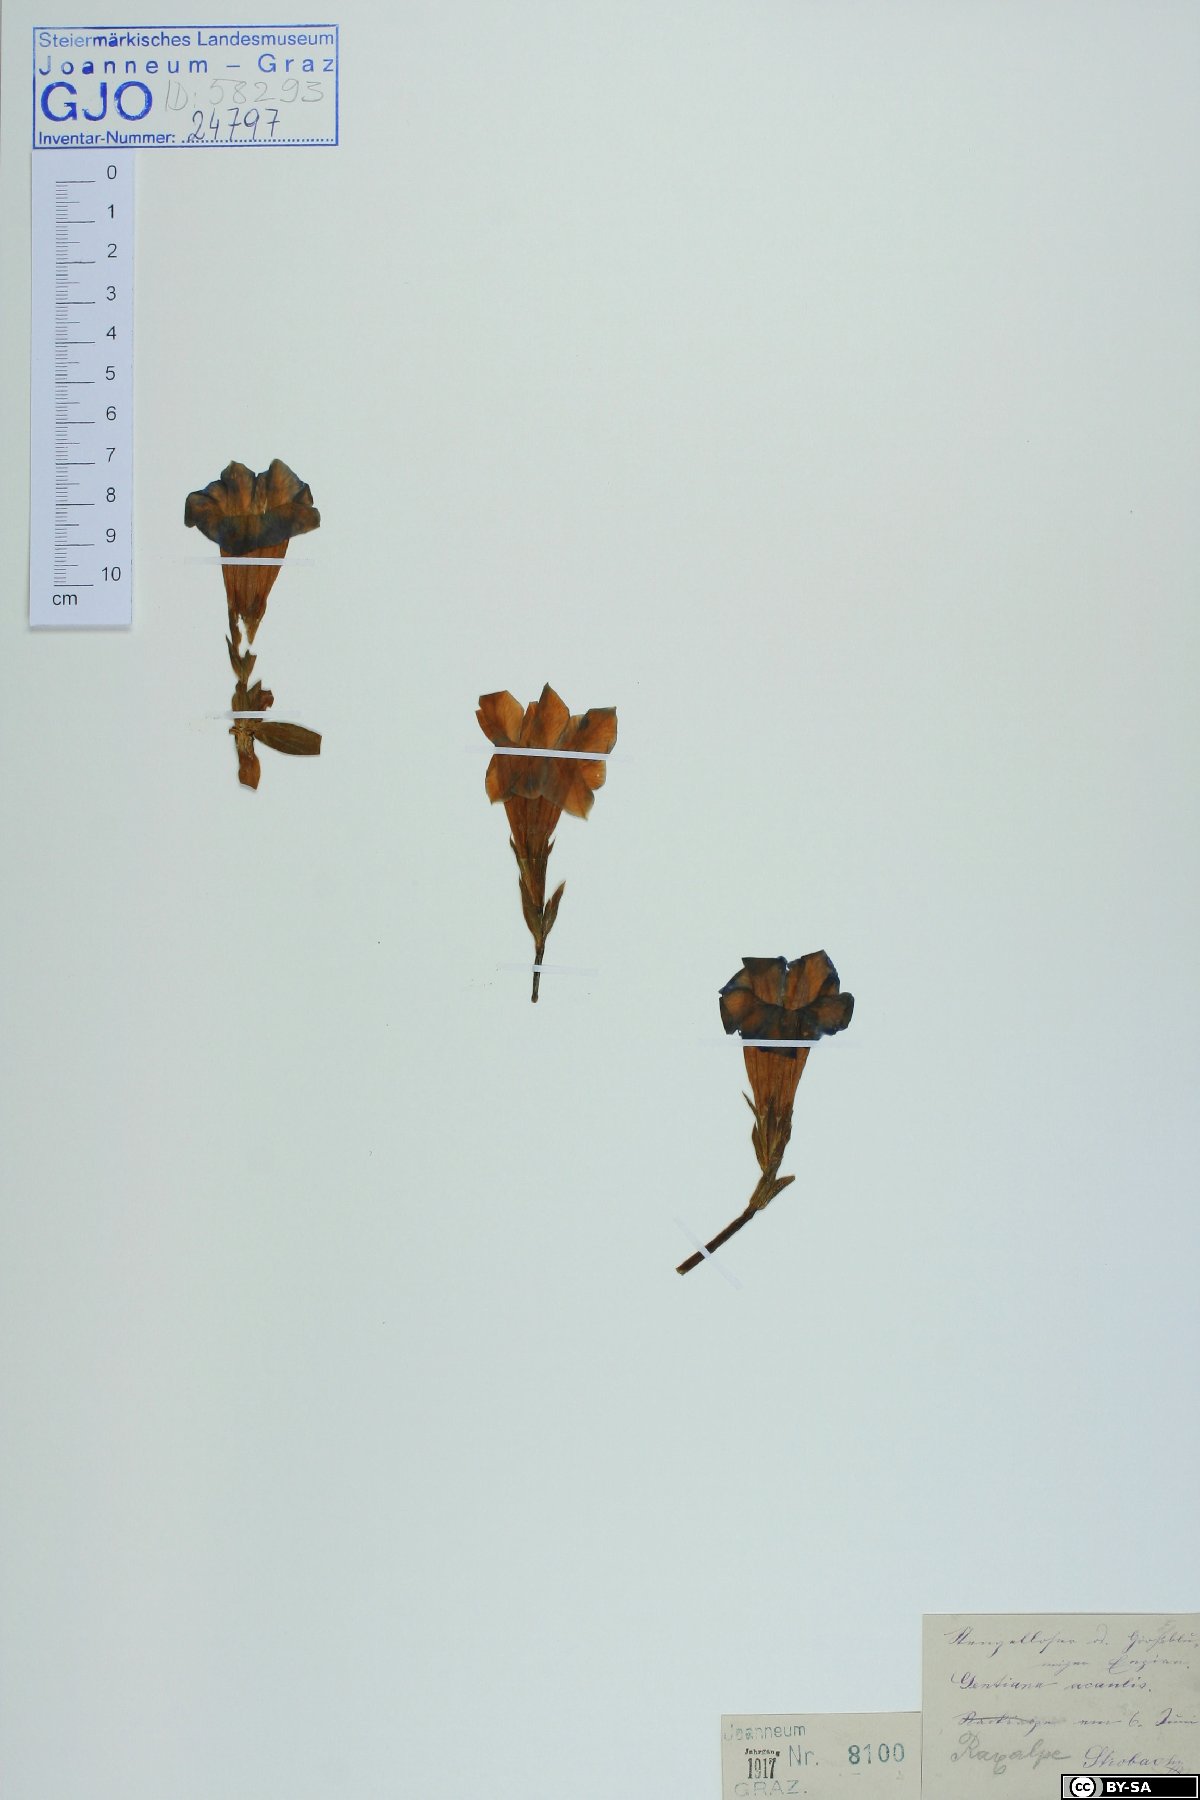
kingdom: Plantae
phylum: Tracheophyta
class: Magnoliopsida
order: Gentianales
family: Gentianaceae
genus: Gentiana
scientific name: Gentiana clusii
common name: Trumpet gentian
